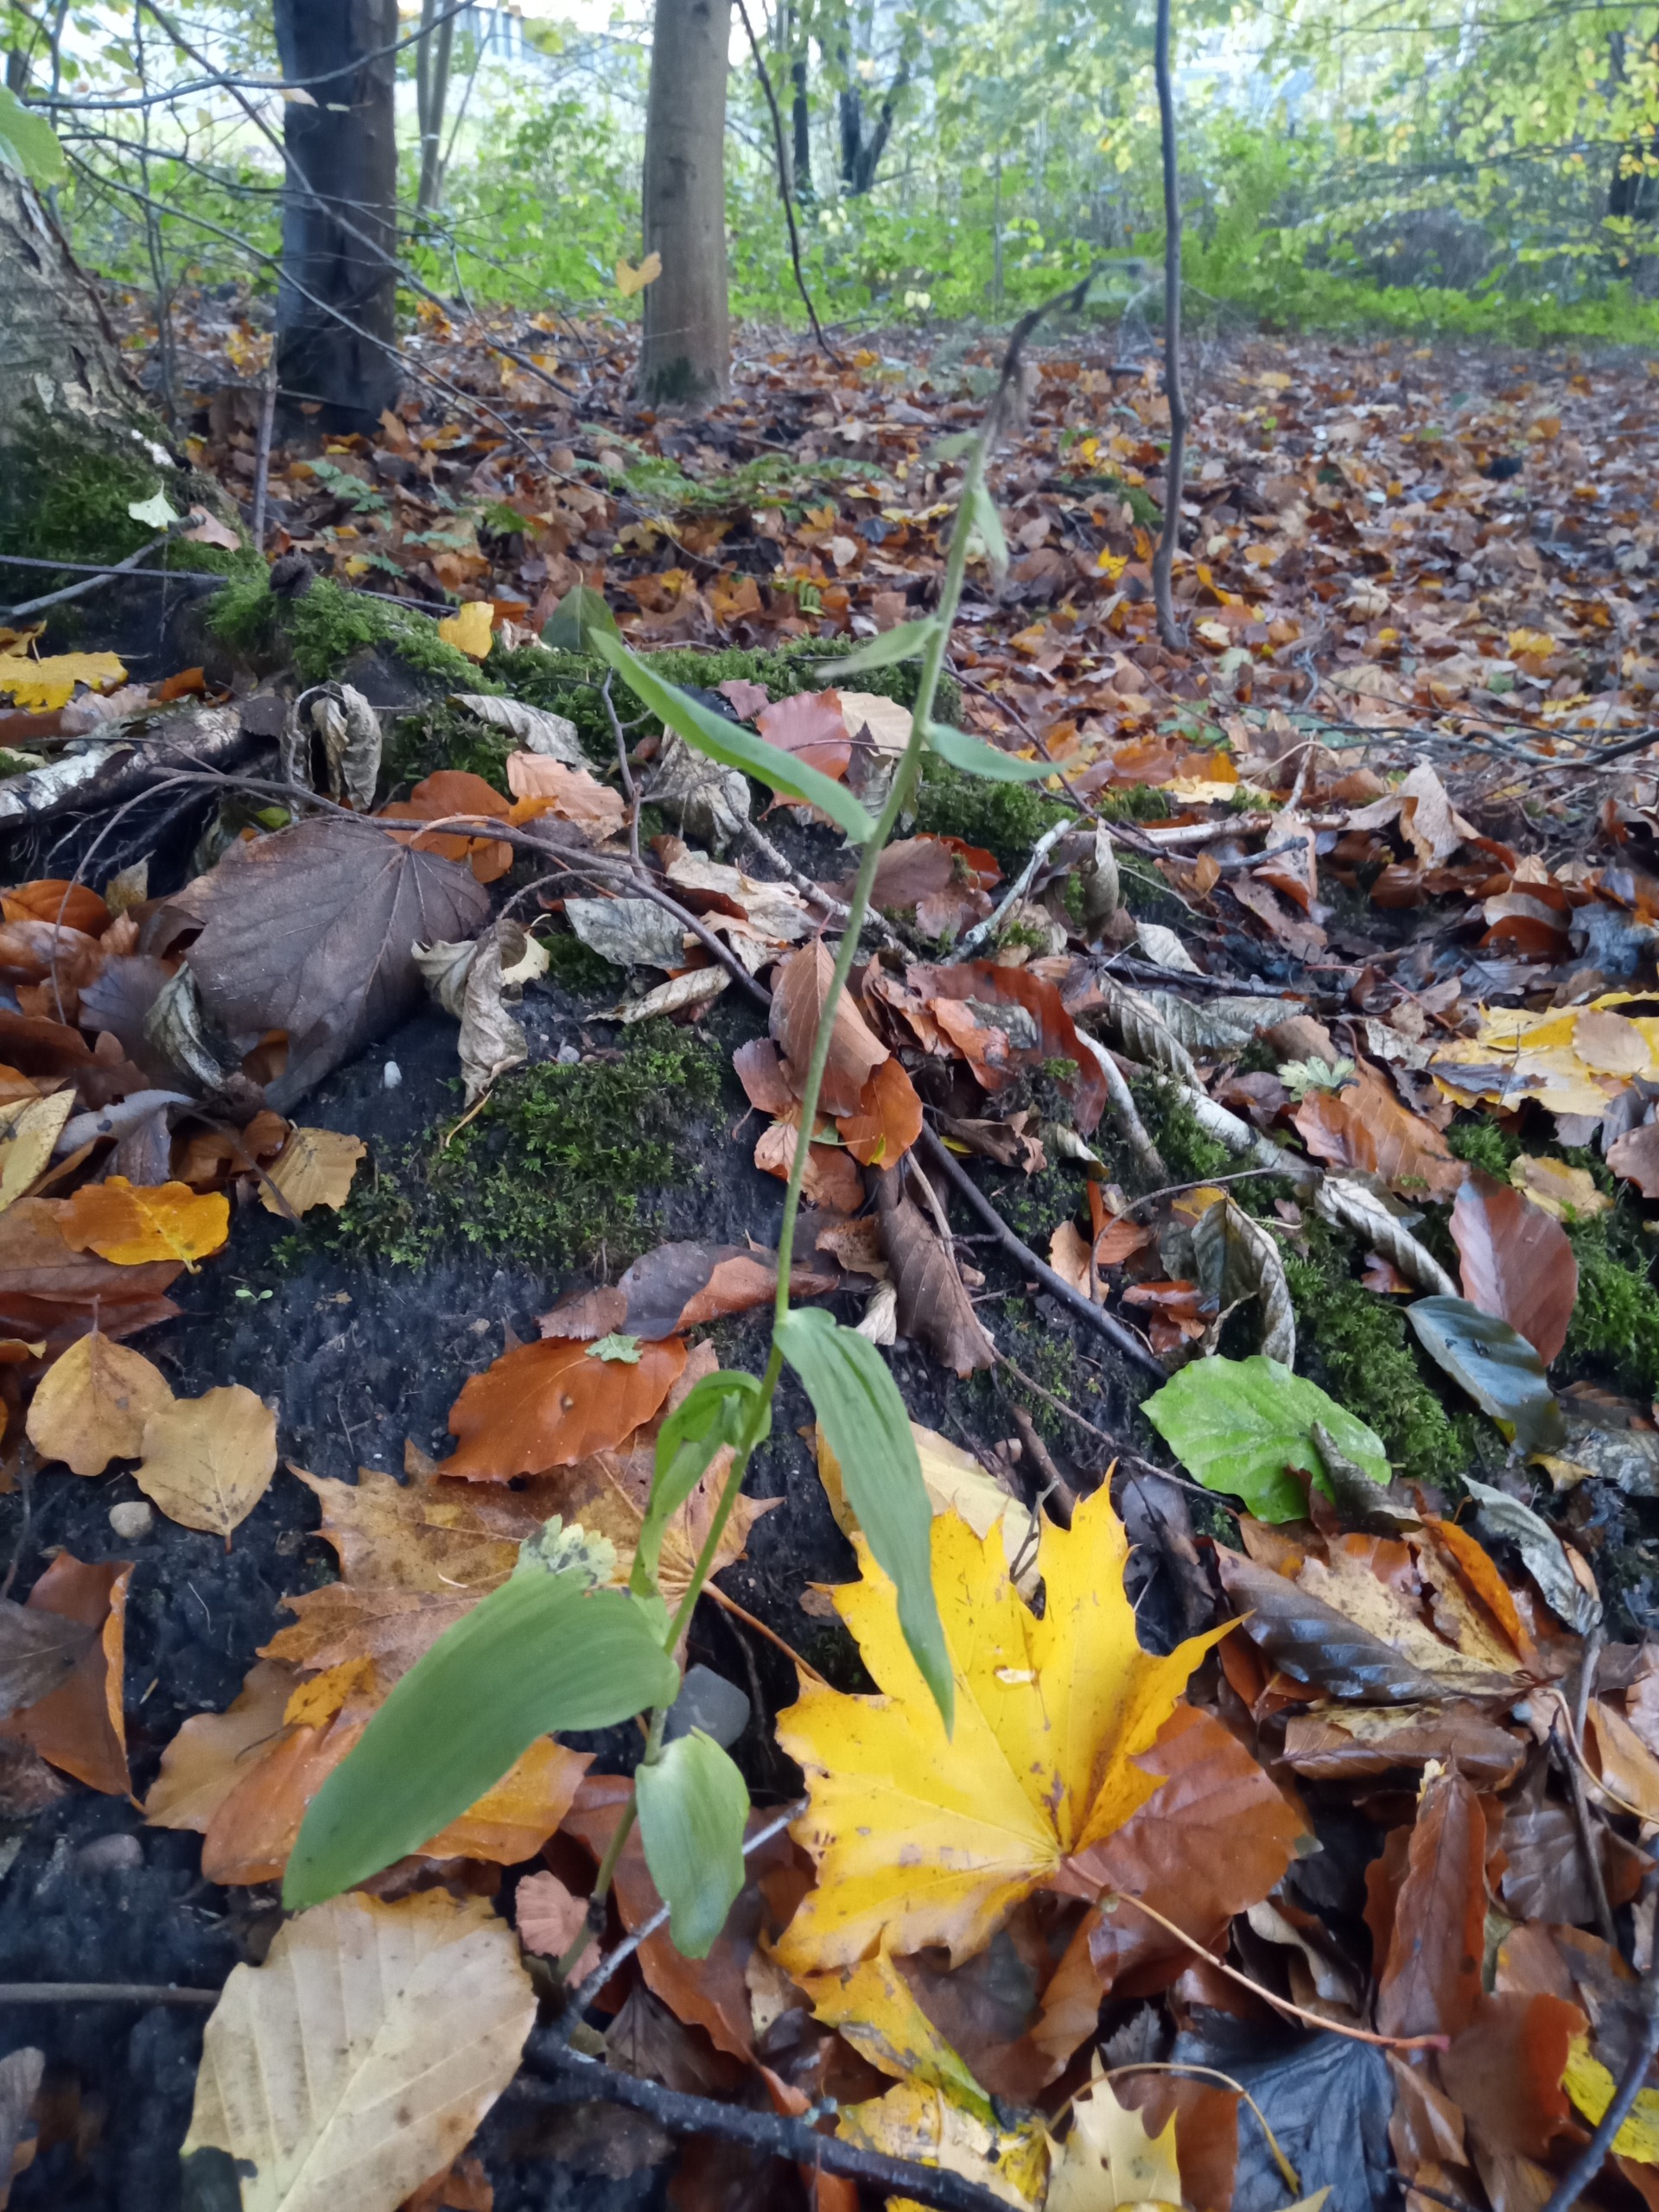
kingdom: Plantae
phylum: Tracheophyta
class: Liliopsida
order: Asparagales
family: Orchidaceae
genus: Epipactis
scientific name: Epipactis helleborine
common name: Skov-hullæbe
